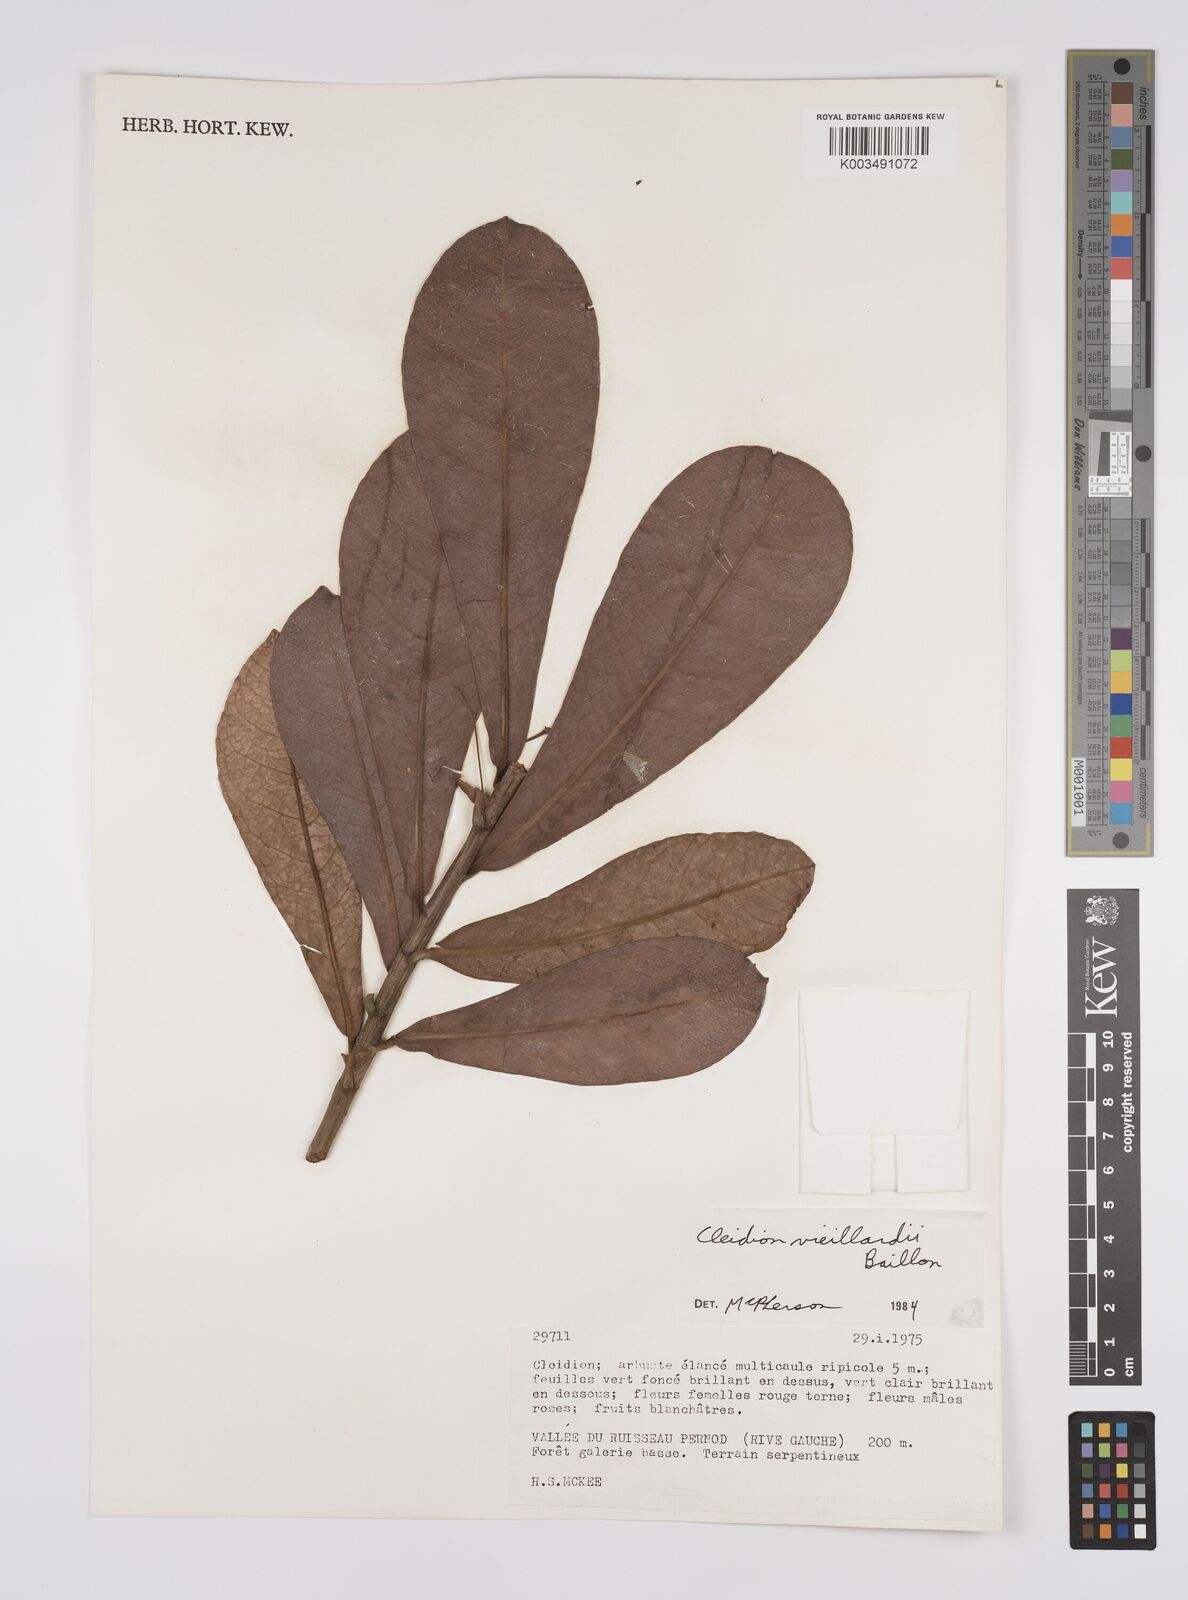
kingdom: Plantae
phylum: Tracheophyta
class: Magnoliopsida
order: Malpighiales
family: Euphorbiaceae
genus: Cleidion
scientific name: Cleidion vieillardii
